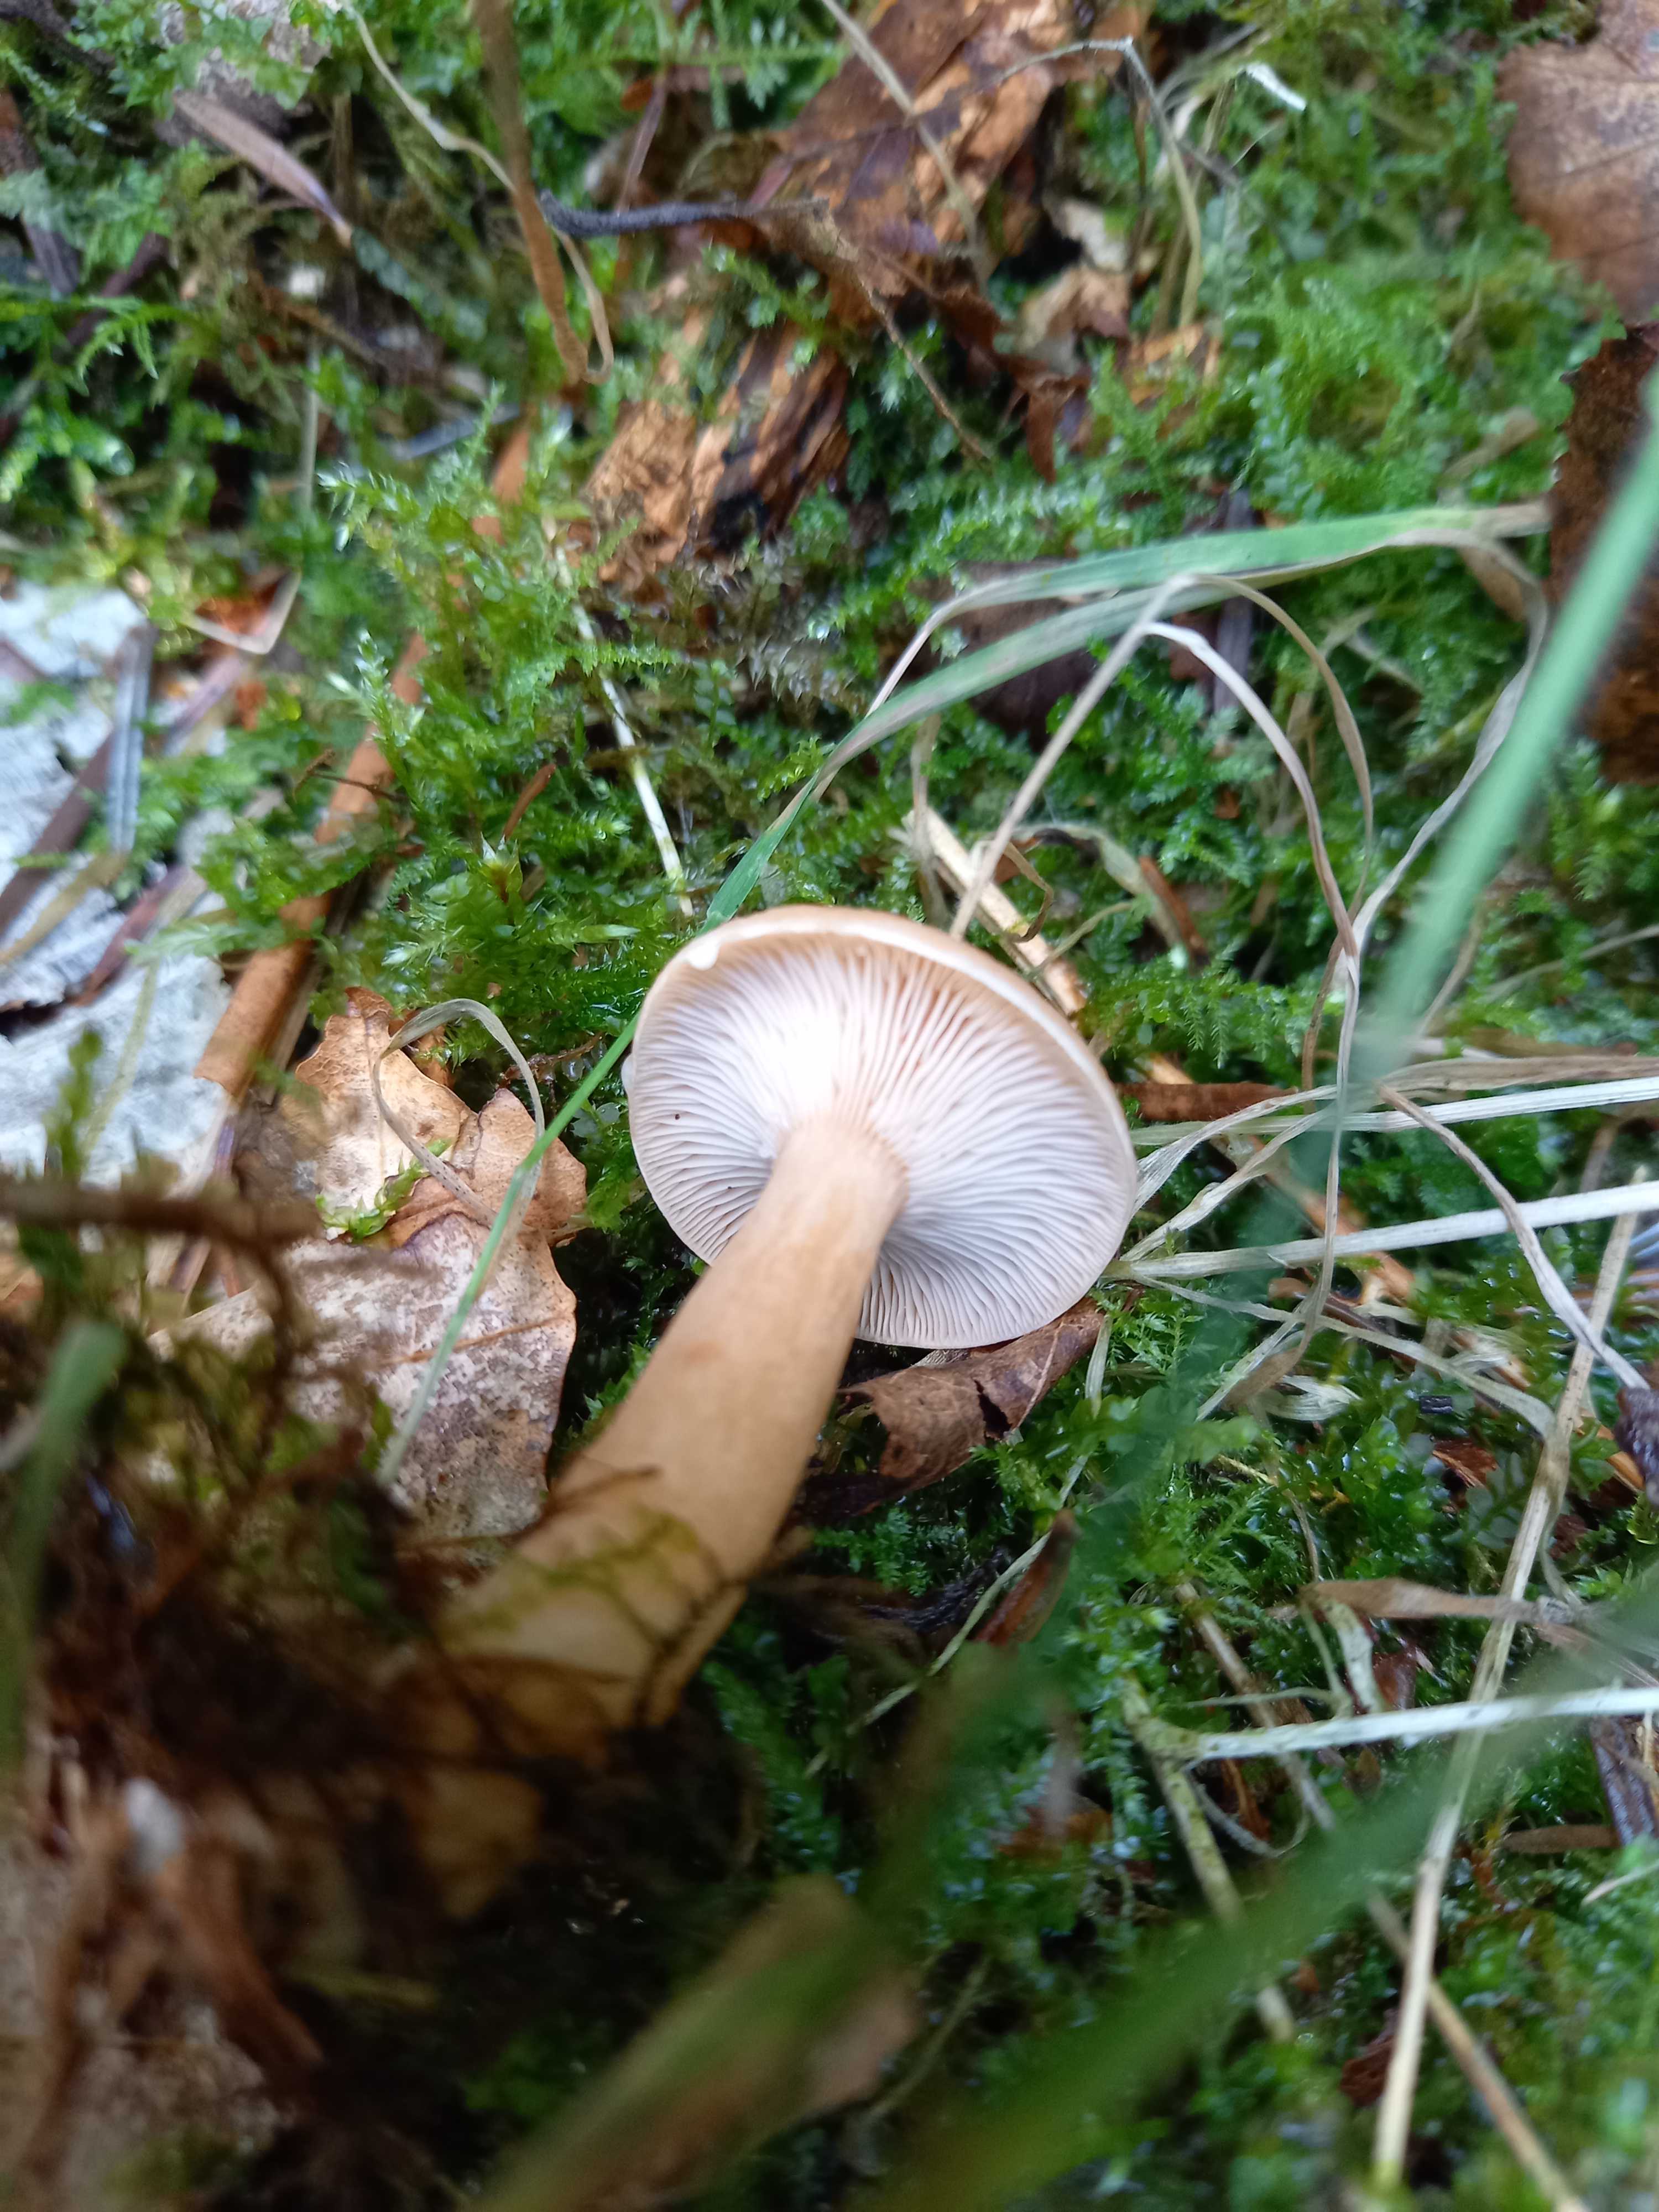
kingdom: Fungi
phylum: Basidiomycota
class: Agaricomycetes
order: Russulales
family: Russulaceae
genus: Lactarius
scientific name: Lactarius tabidus
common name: rynket mælkehat
